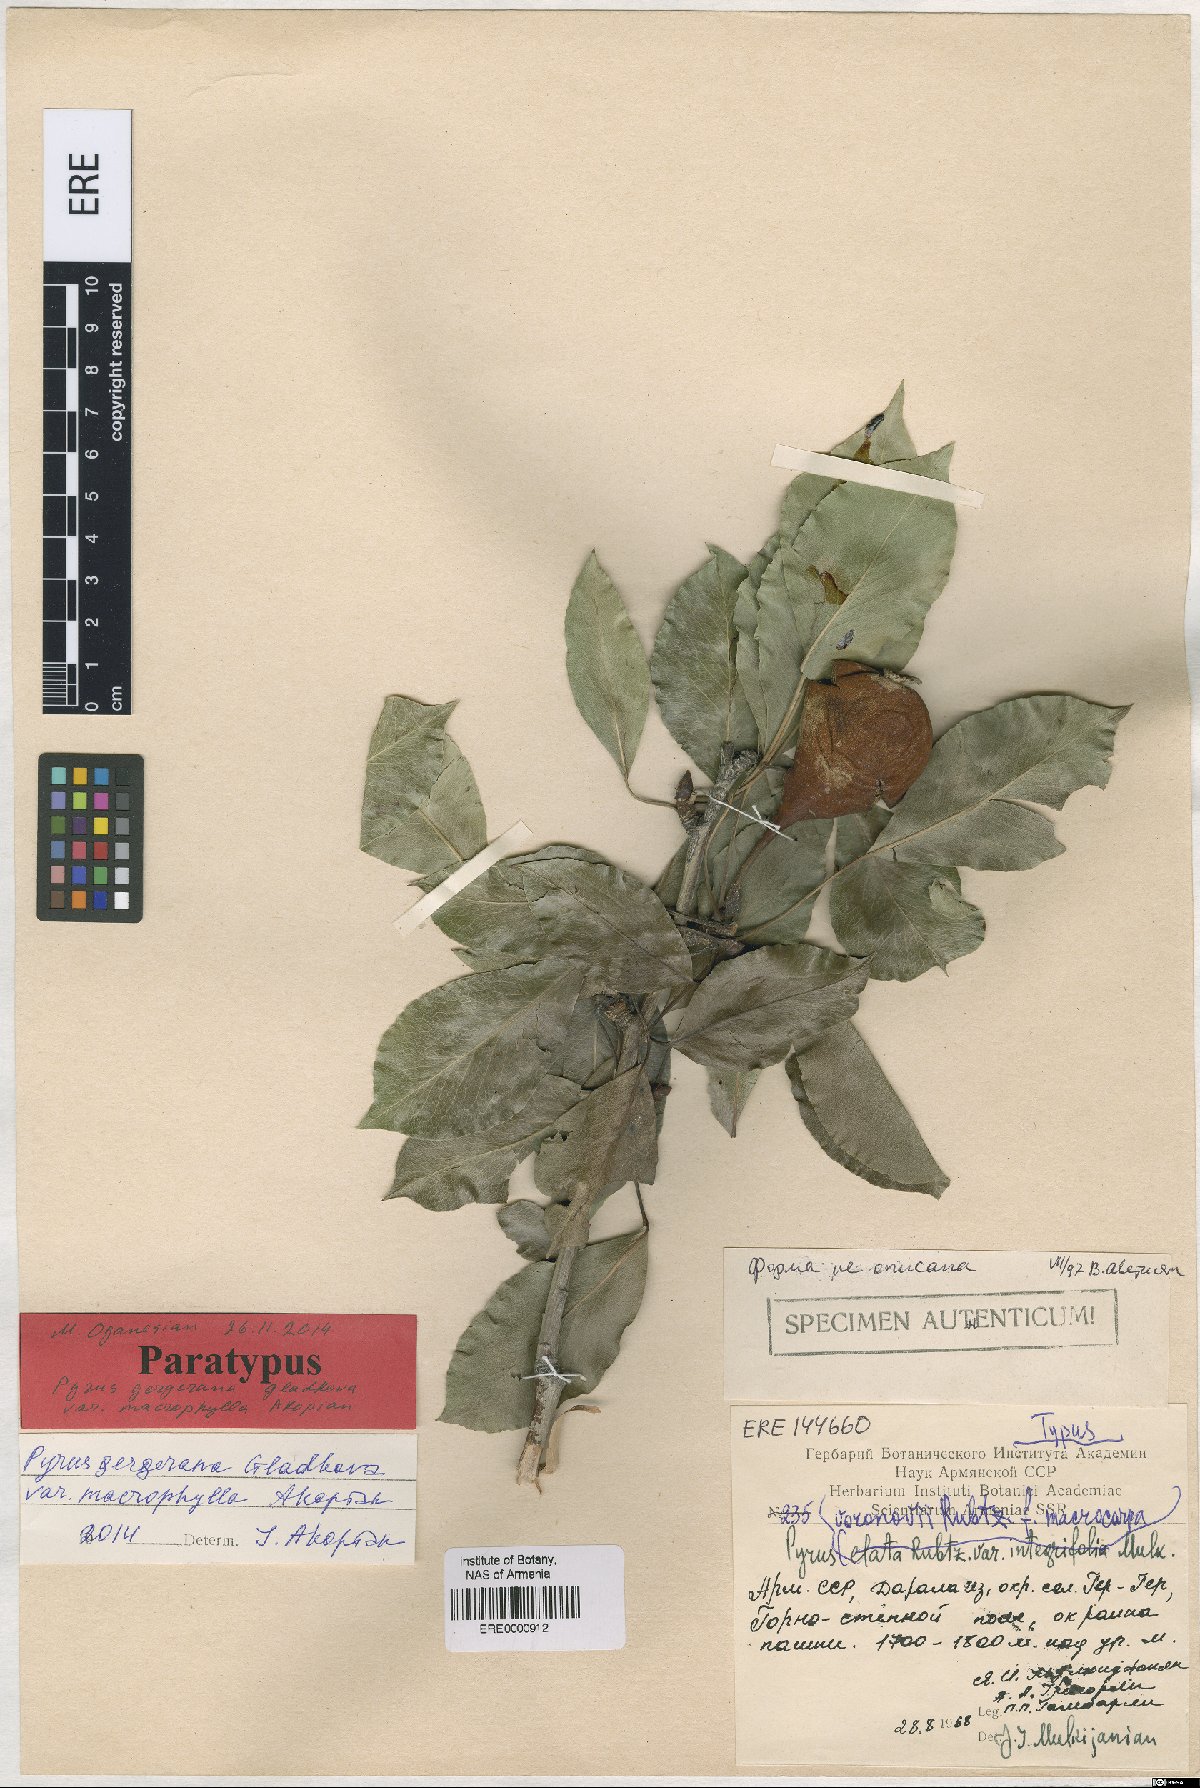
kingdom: Plantae
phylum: Tracheophyta
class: Magnoliopsida
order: Rosales
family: Rosaceae
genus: Pyrus
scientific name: Pyrus gergerana
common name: Gergeranian pear
